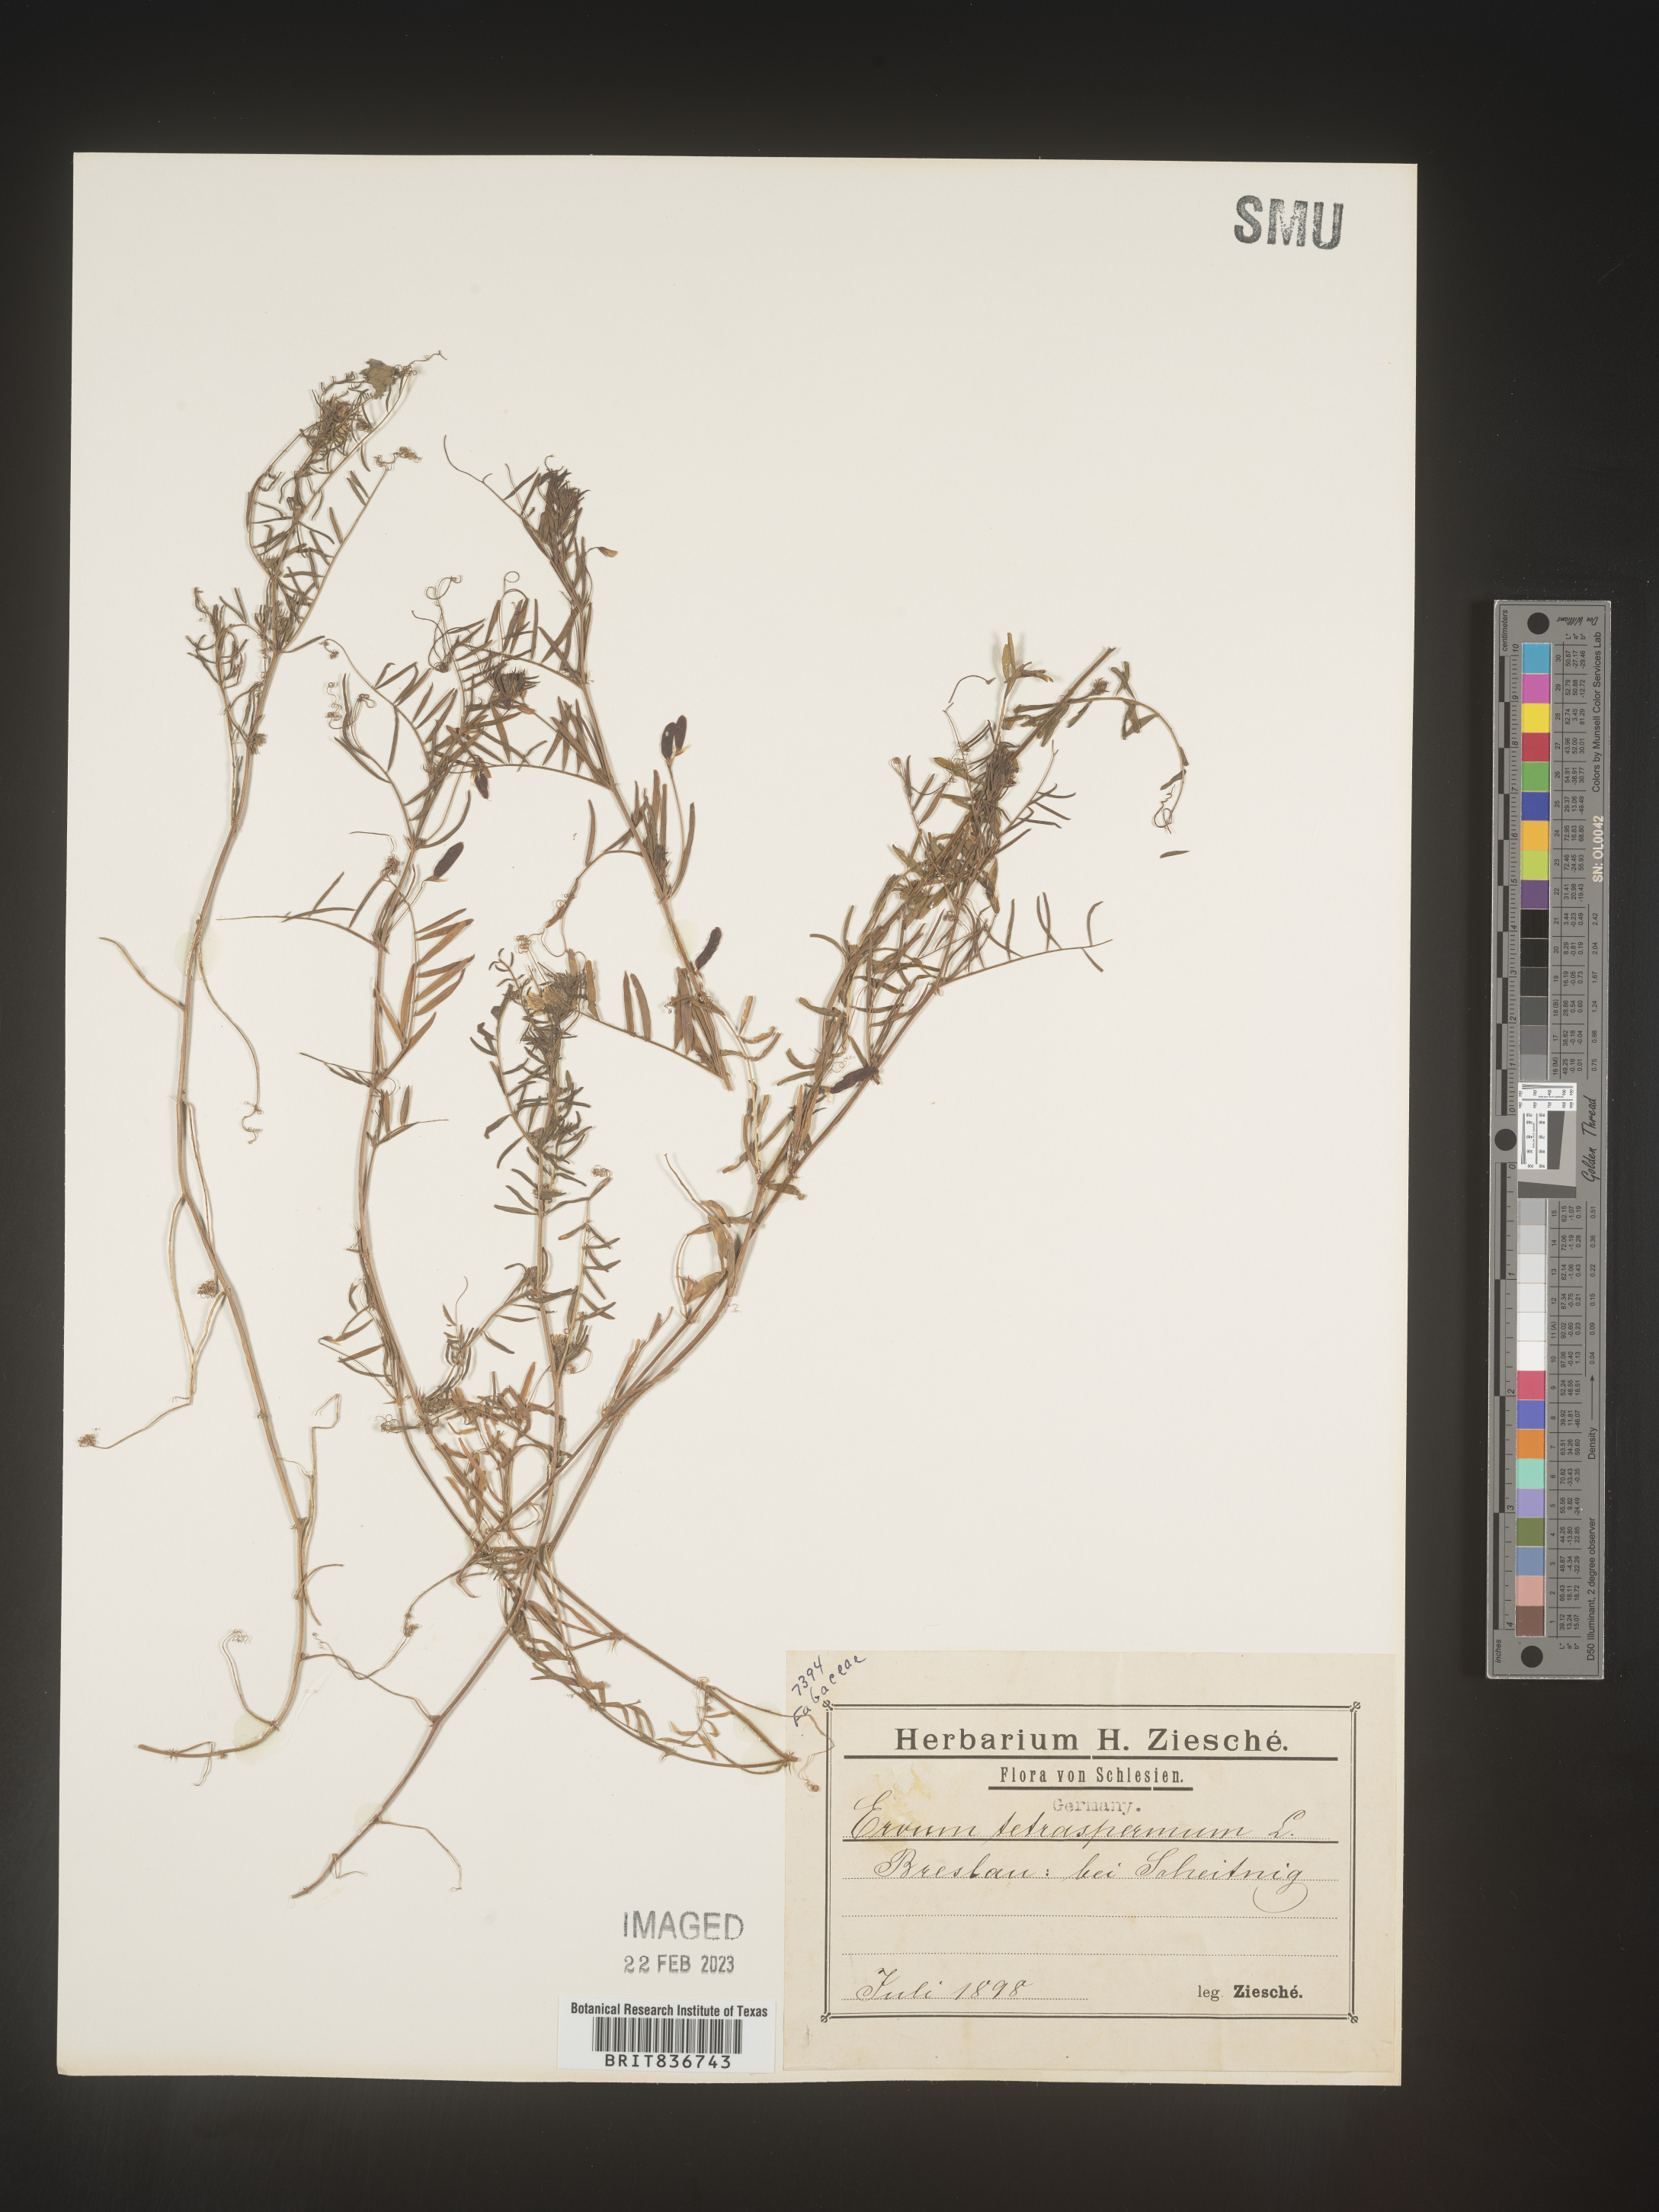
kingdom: Plantae
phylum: Tracheophyta
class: Magnoliopsida
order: Fabales
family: Fabaceae
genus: Vicia
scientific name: Vicia
